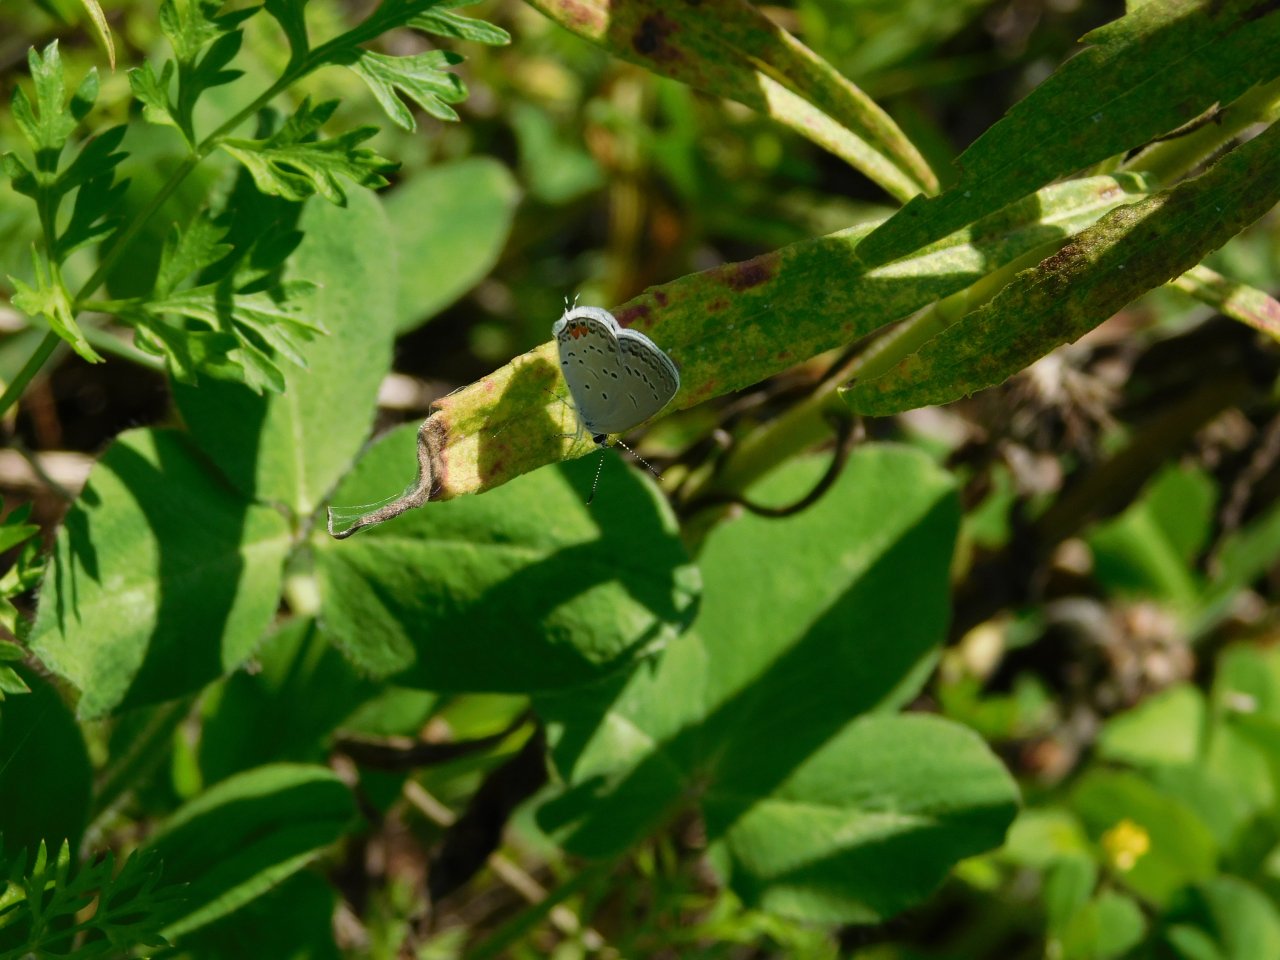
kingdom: Animalia
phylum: Arthropoda
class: Insecta
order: Lepidoptera
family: Lycaenidae
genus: Elkalyce
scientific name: Elkalyce comyntas
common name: Eastern Tailed-Blue
